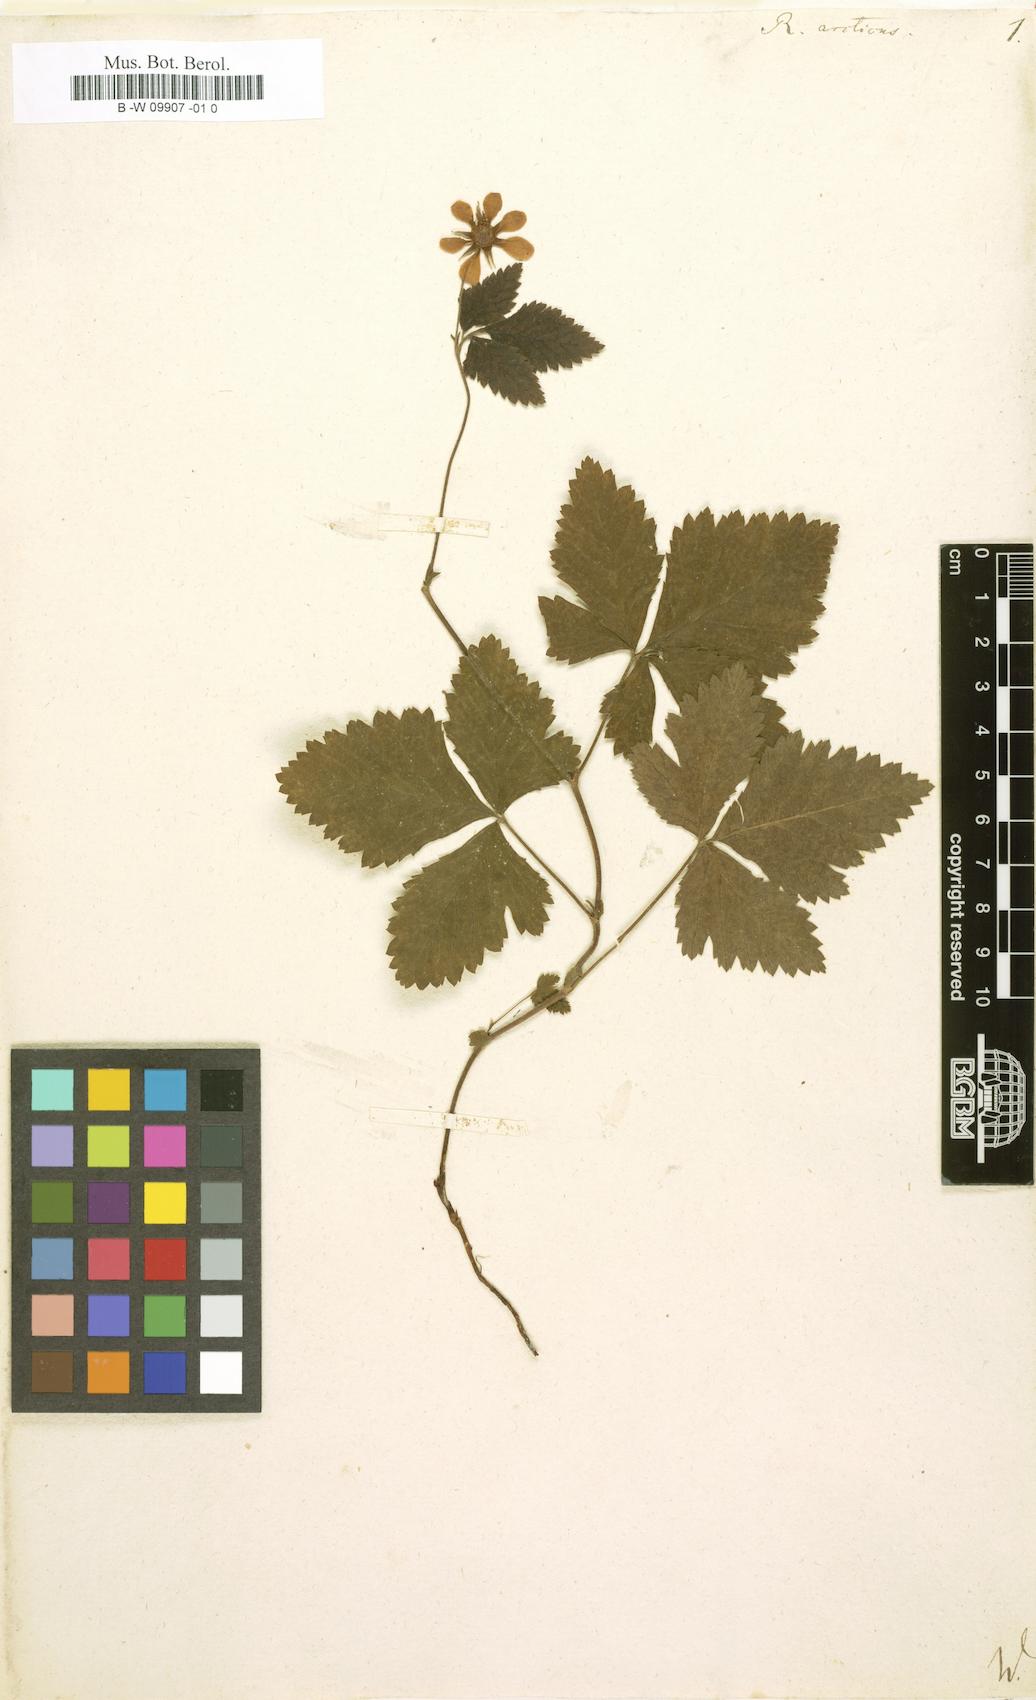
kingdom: Plantae
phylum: Tracheophyta
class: Magnoliopsida
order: Rosales
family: Rosaceae
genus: Rubus
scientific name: Rubus arcticus
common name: Arctic bramble
